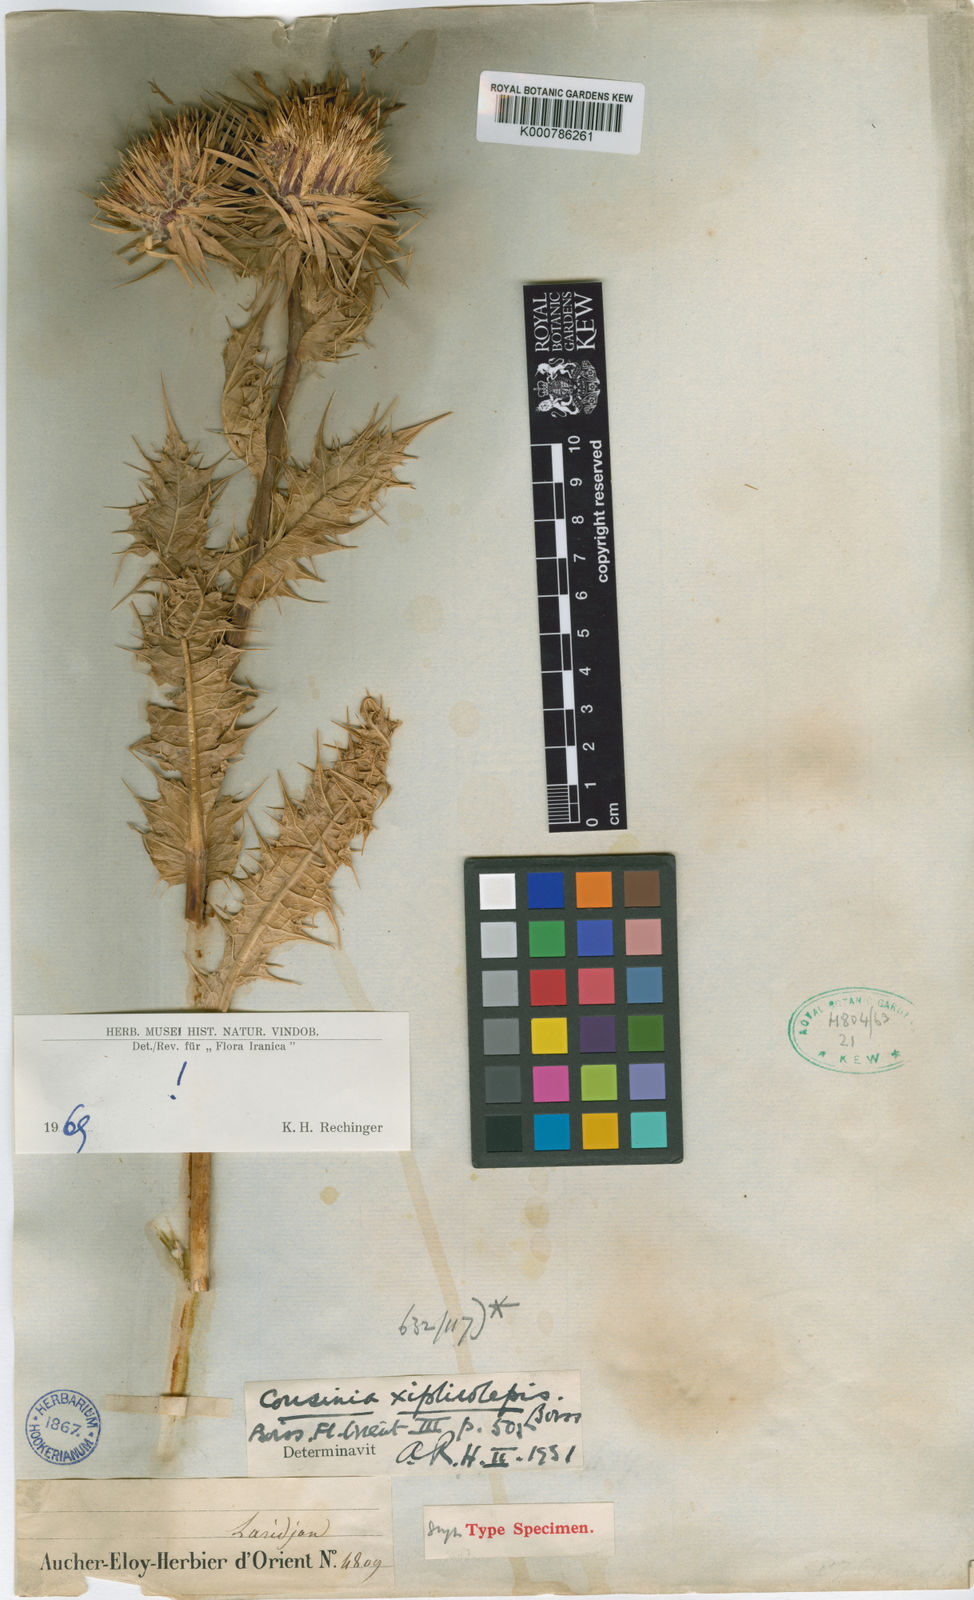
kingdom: Plantae
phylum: Tracheophyta
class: Magnoliopsida
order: Asterales
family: Asteraceae
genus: Cousinia
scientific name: Cousinia
